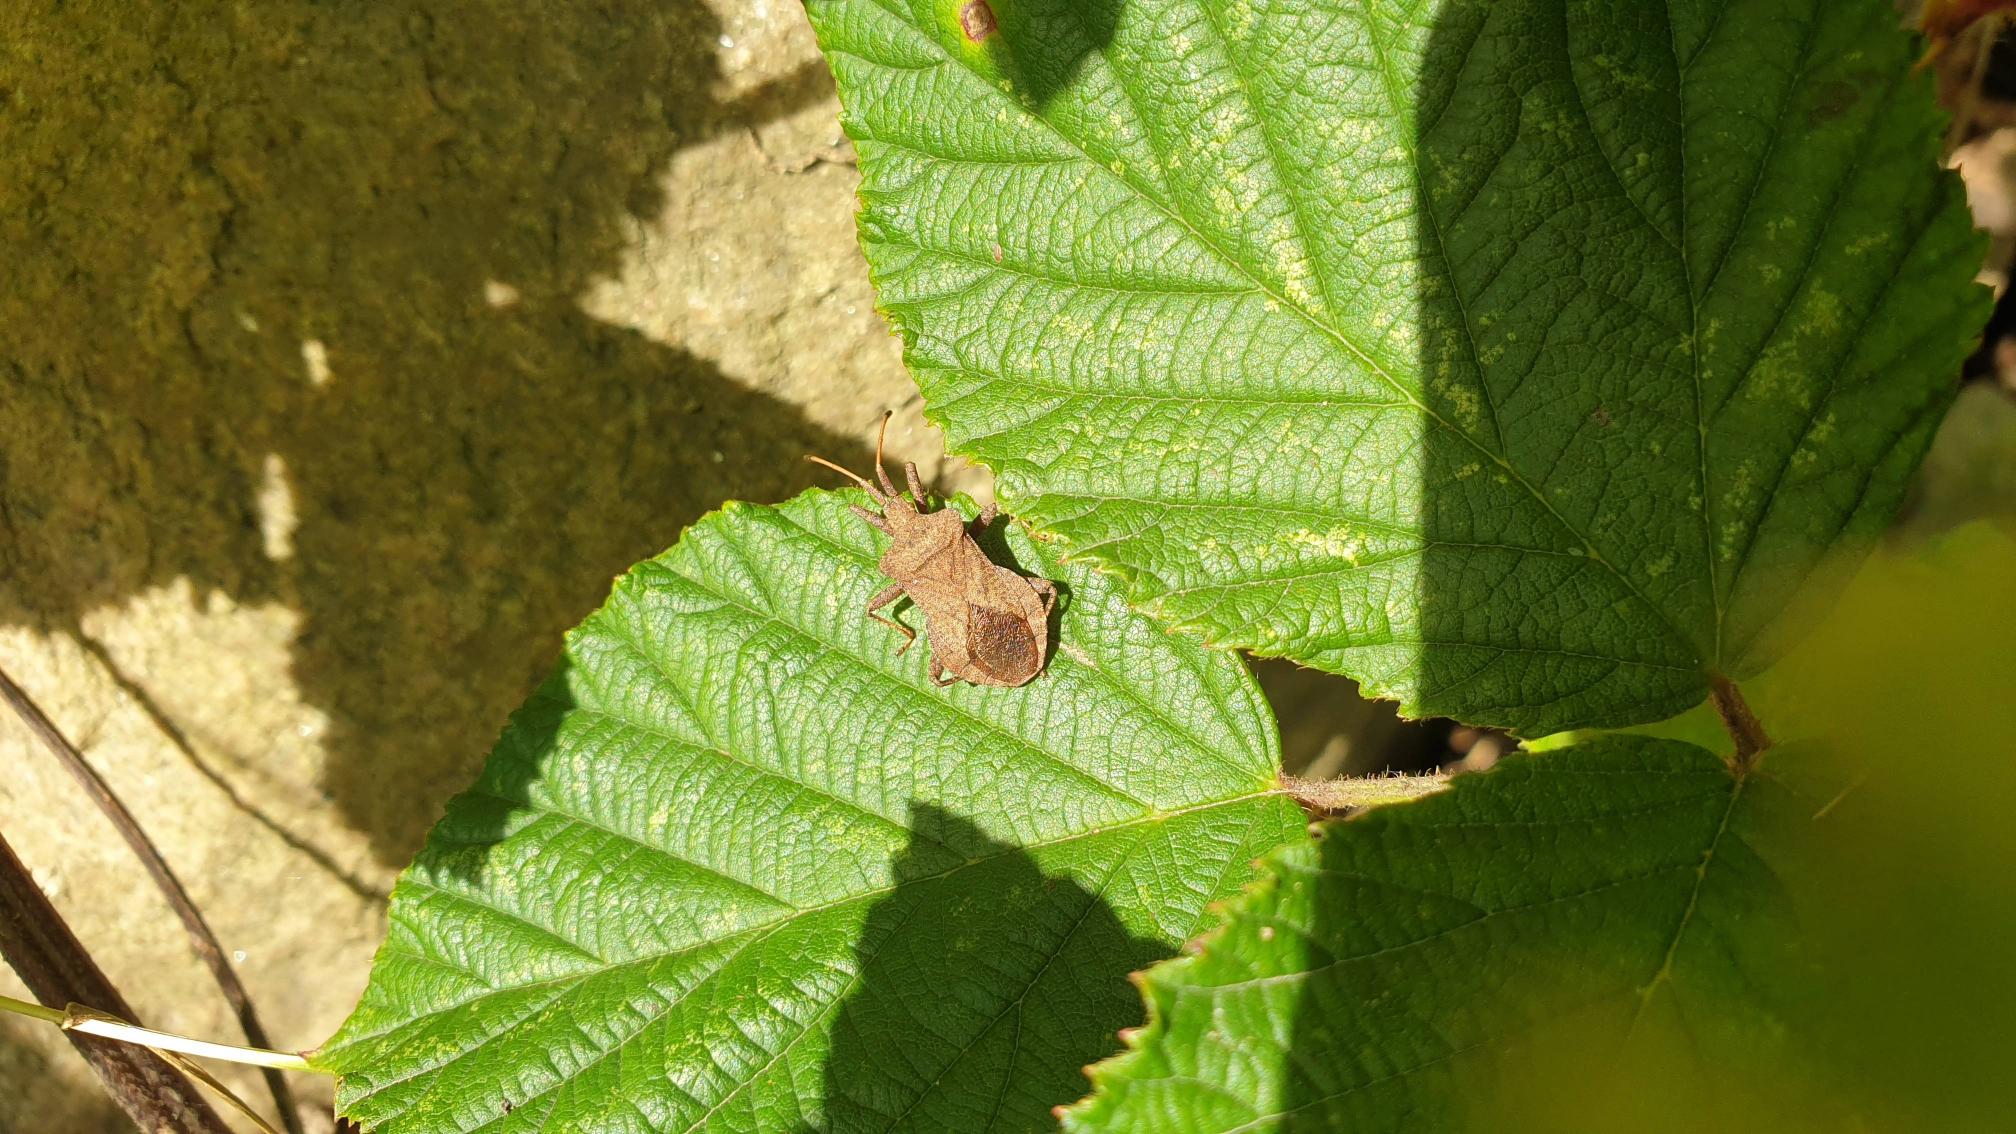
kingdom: Animalia
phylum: Arthropoda
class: Insecta
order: Hemiptera
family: Coreidae
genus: Coreus
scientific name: Coreus marginatus
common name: Skræppetæge
